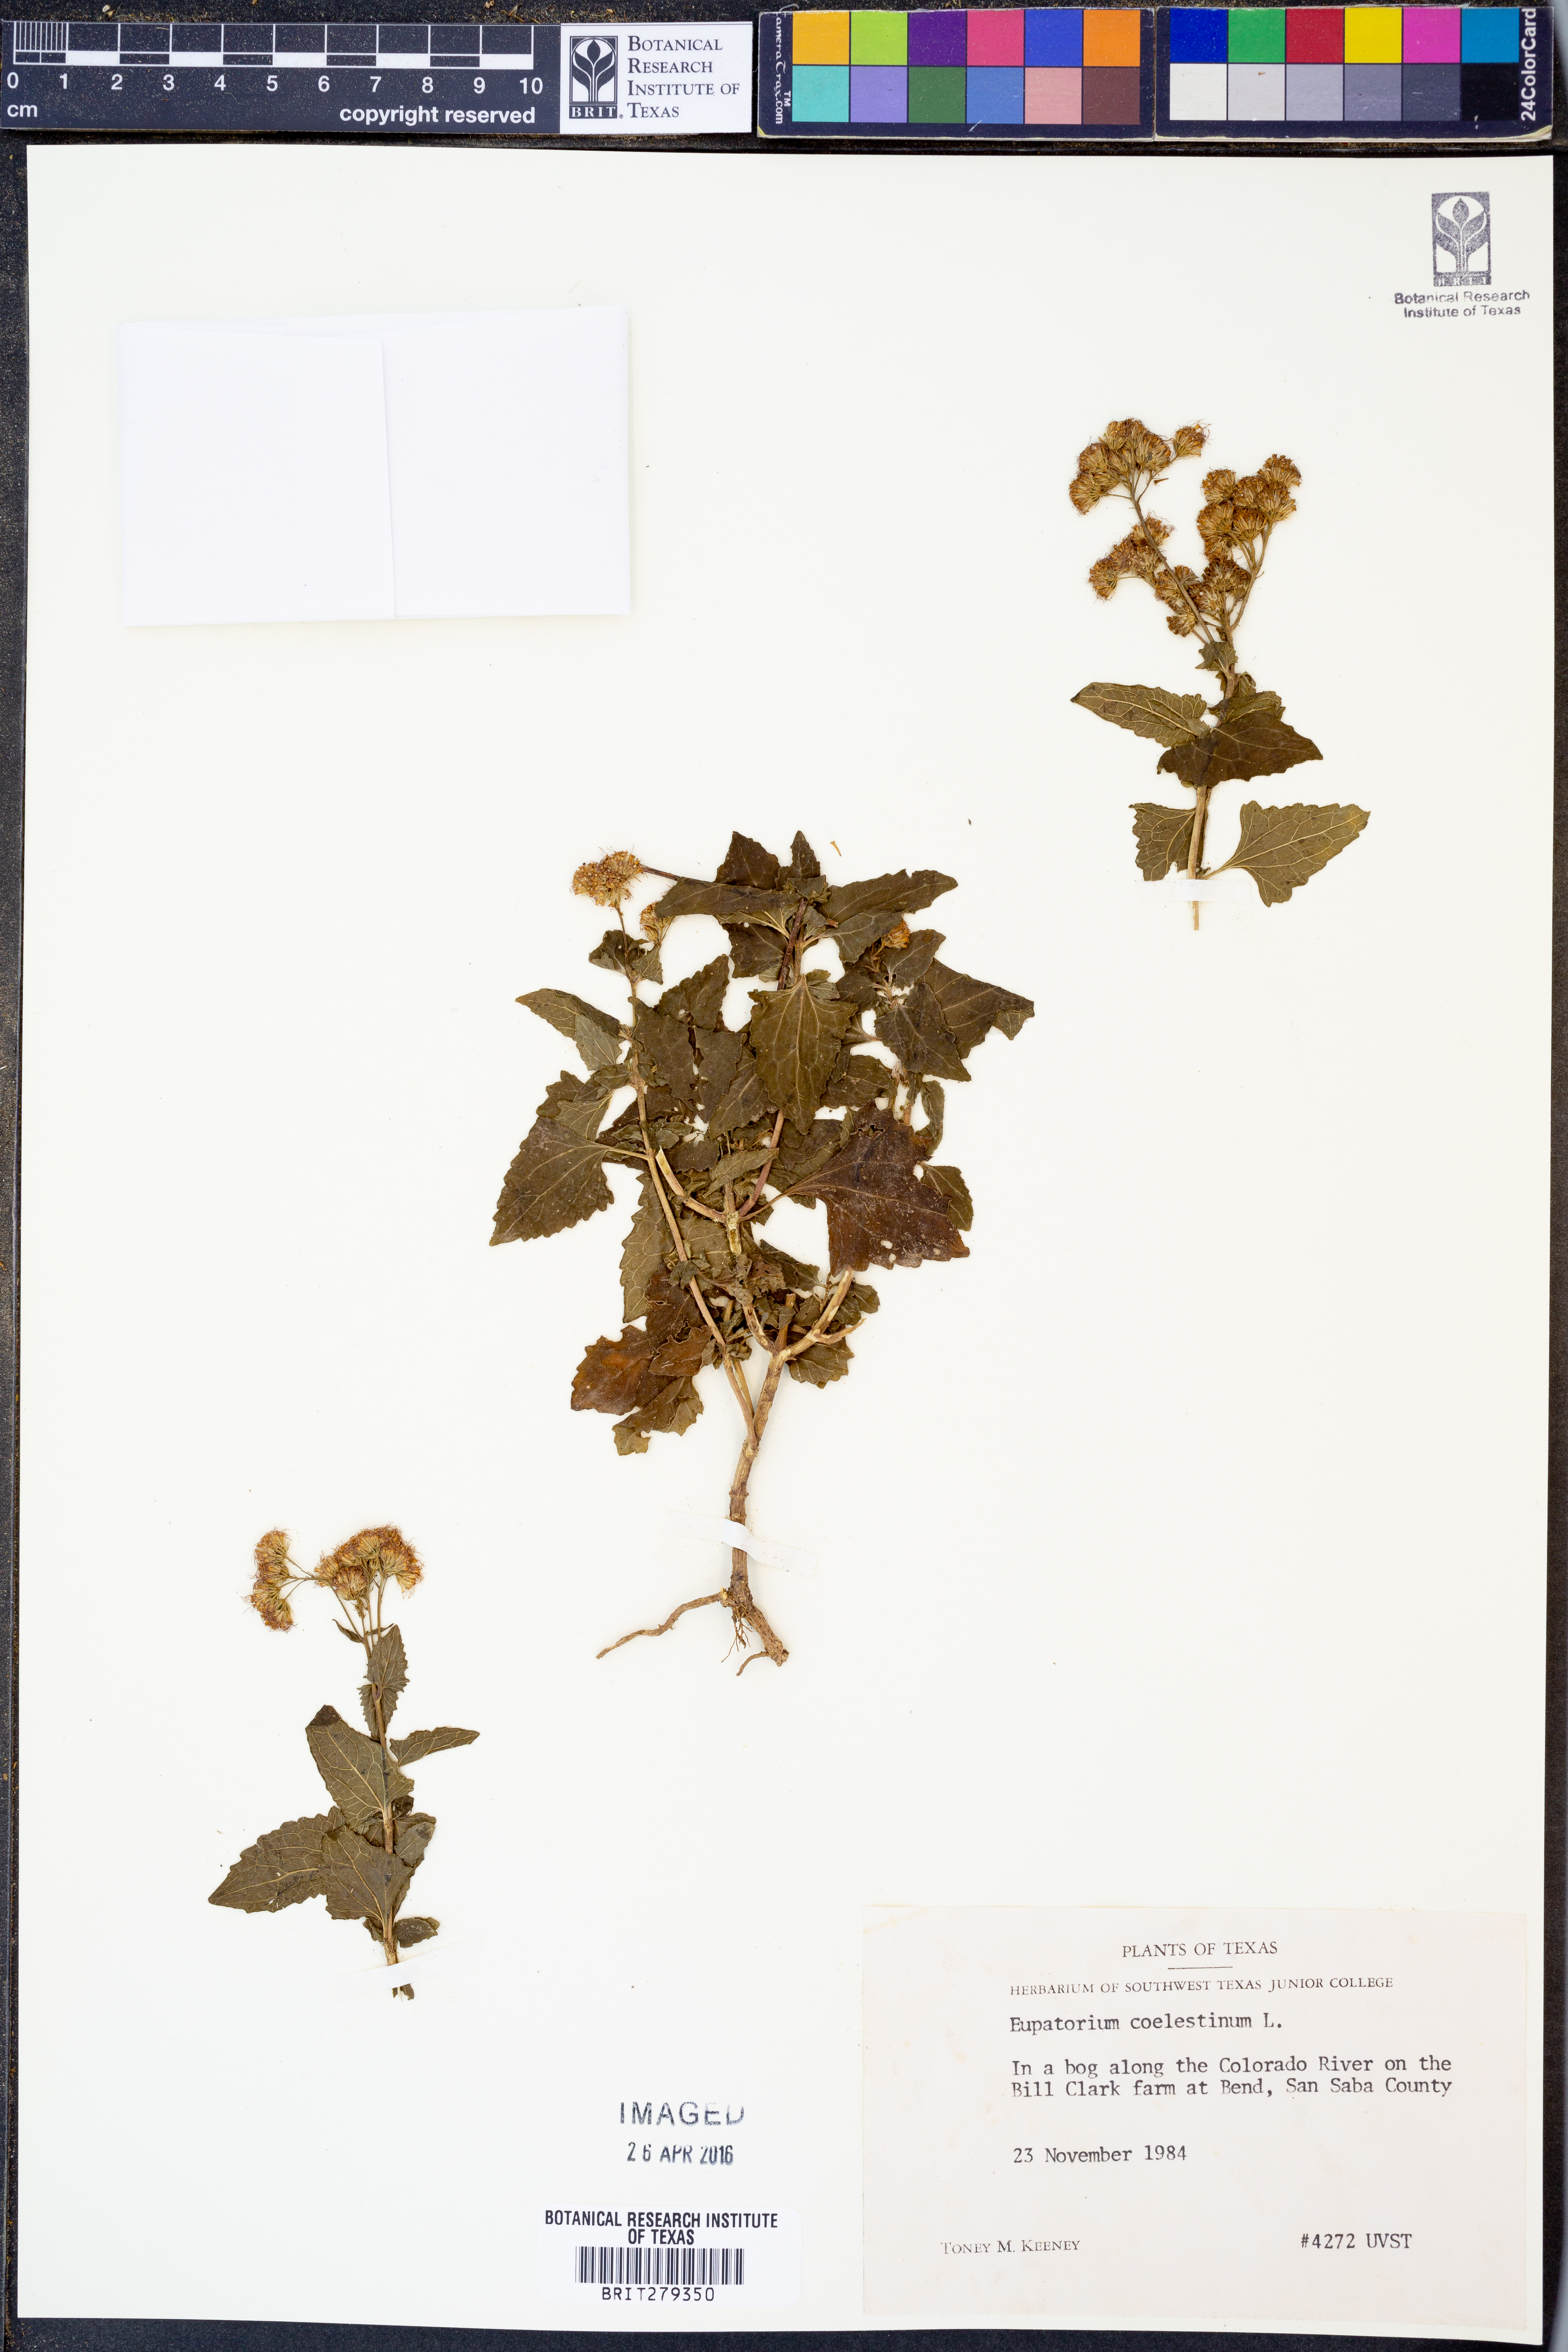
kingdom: Plantae
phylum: Tracheophyta
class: Magnoliopsida
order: Asterales
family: Asteraceae
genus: Conoclinium
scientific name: Conoclinium coelestinum
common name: Blue mistflower
